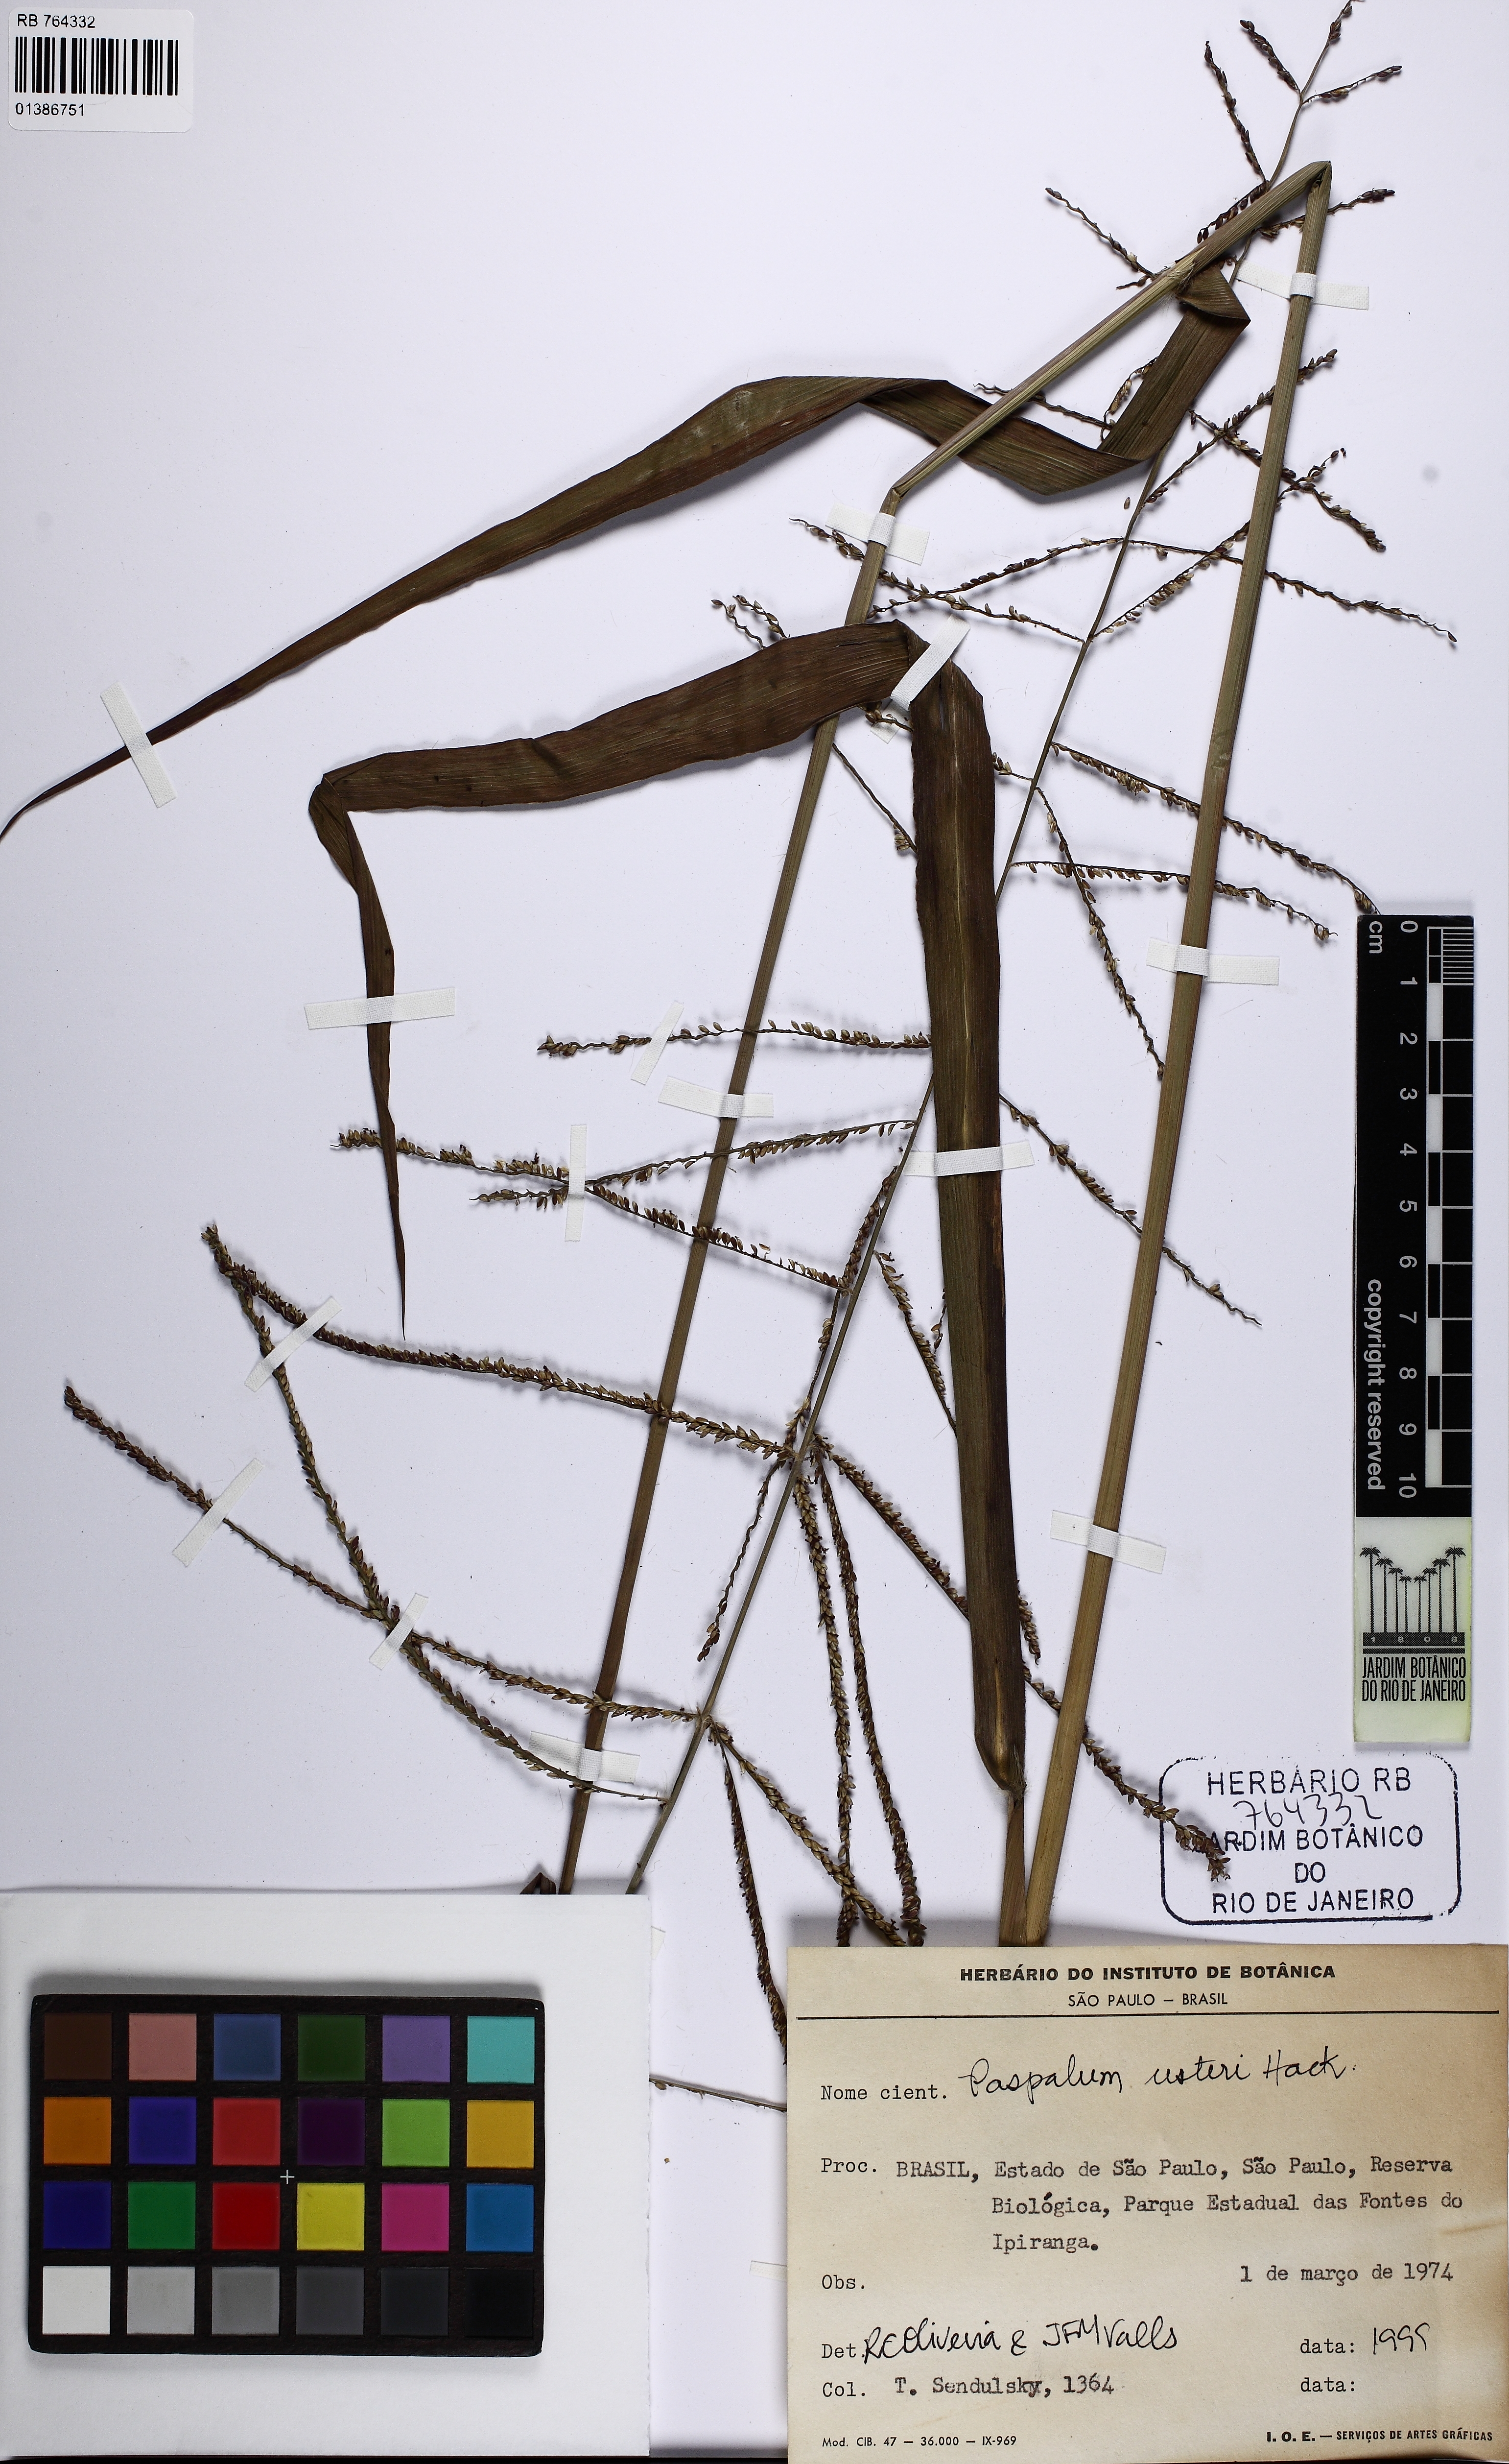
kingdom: Plantae
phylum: Tracheophyta
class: Liliopsida
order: Poales
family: Poaceae
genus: Paspalum
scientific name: Paspalum usterii
